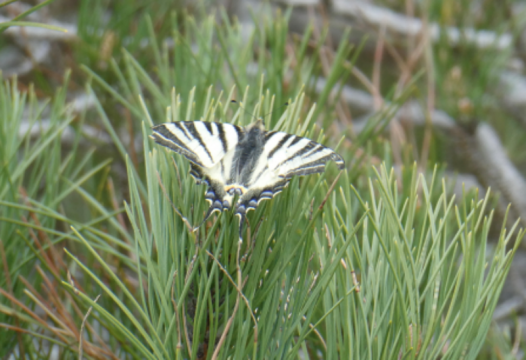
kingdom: Animalia
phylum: Arthropoda
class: Insecta
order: Lepidoptera
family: Papilionidae
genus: Iphiclides
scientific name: Iphiclides podalirius
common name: Scarce Swallowtail
